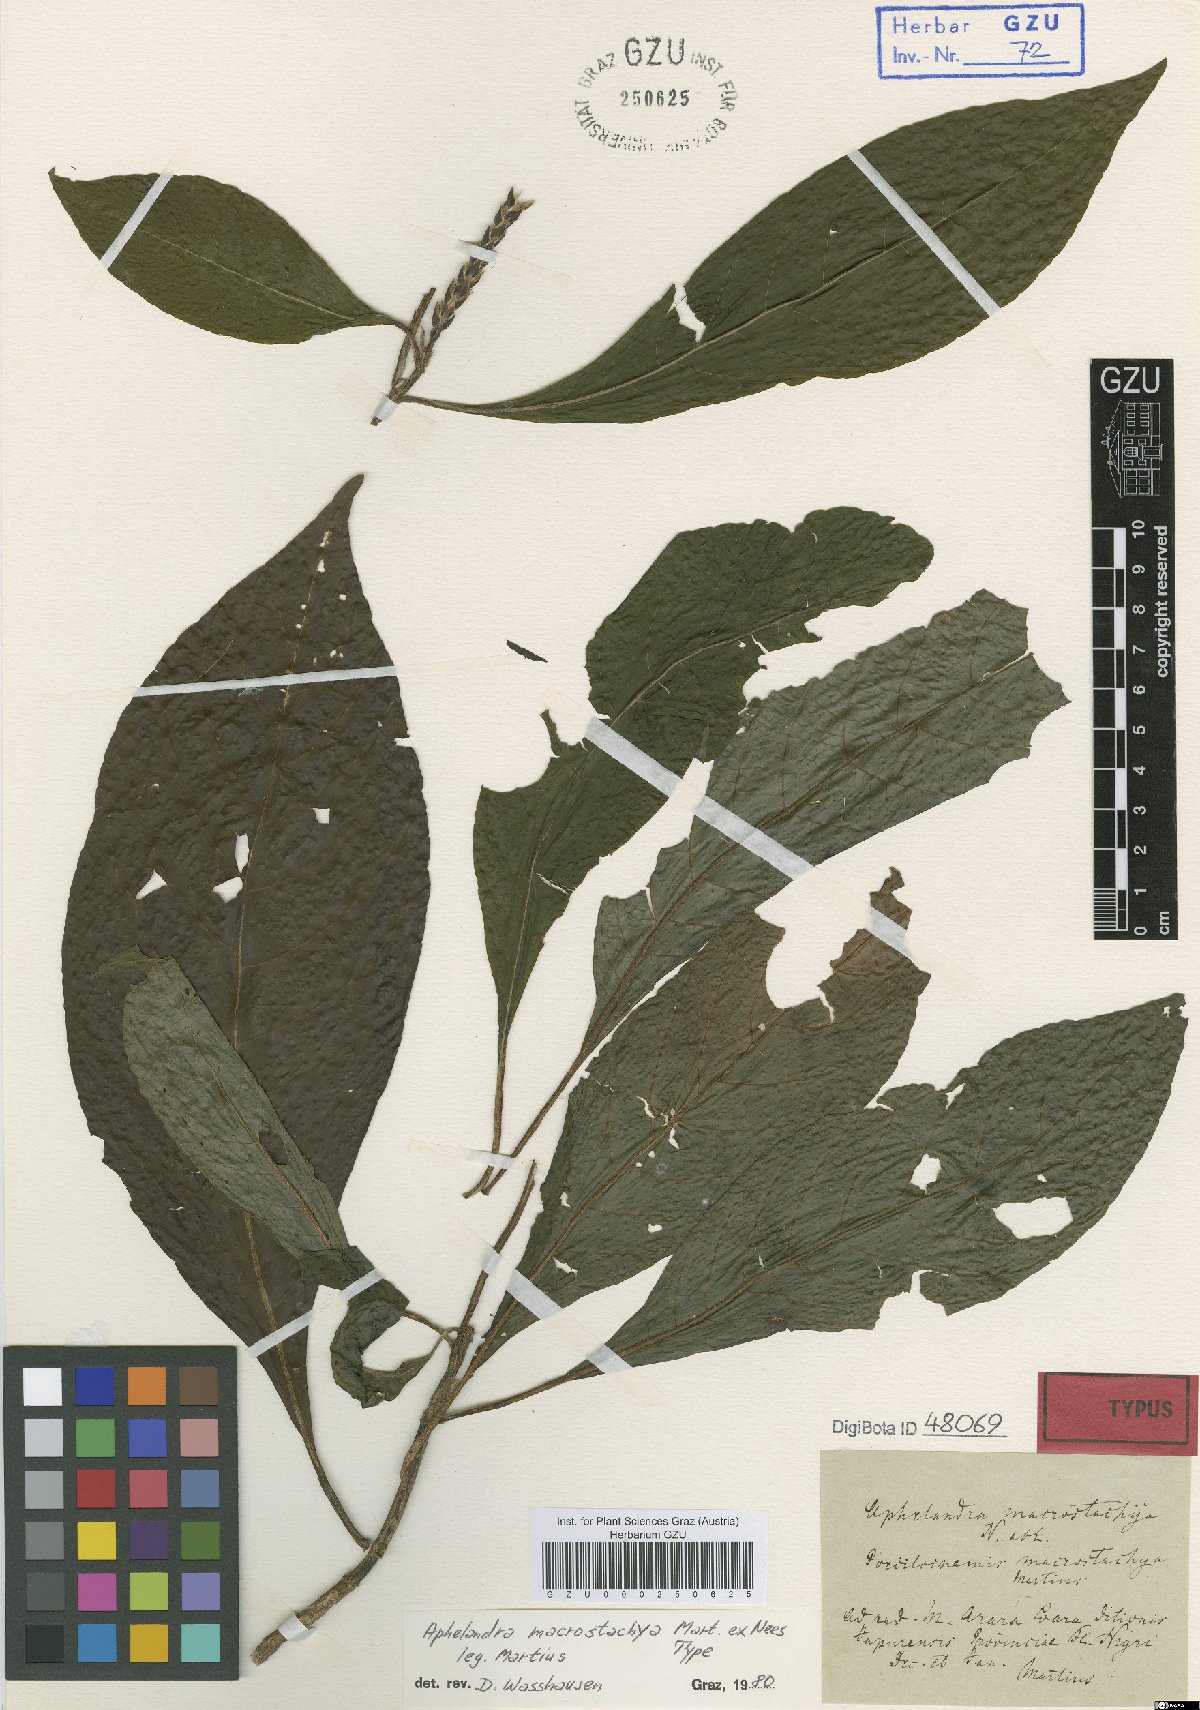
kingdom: Plantae
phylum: Tracheophyta
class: Magnoliopsida
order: Lamiales
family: Acanthaceae
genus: Aphelandra
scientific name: Aphelandra macrostachya
